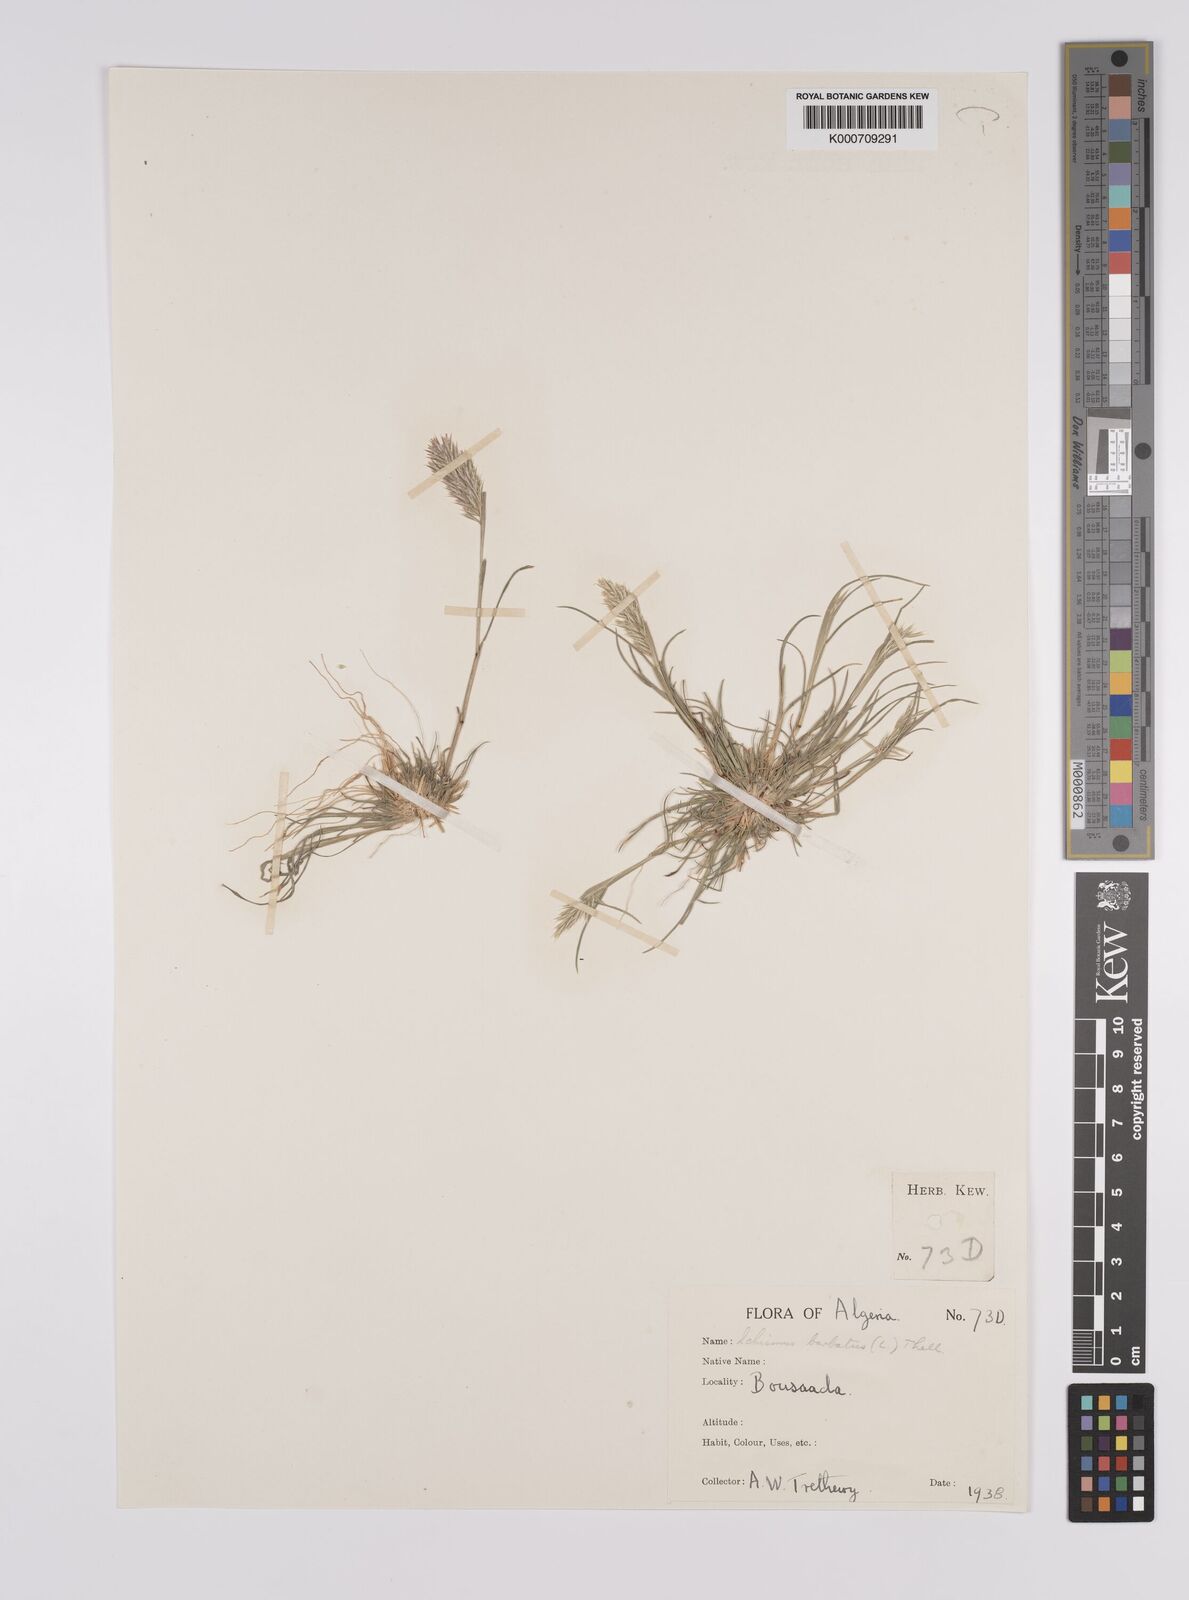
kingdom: Plantae
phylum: Tracheophyta
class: Liliopsida
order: Poales
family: Poaceae
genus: Schismus
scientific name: Schismus barbatus
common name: Kelch-grass
